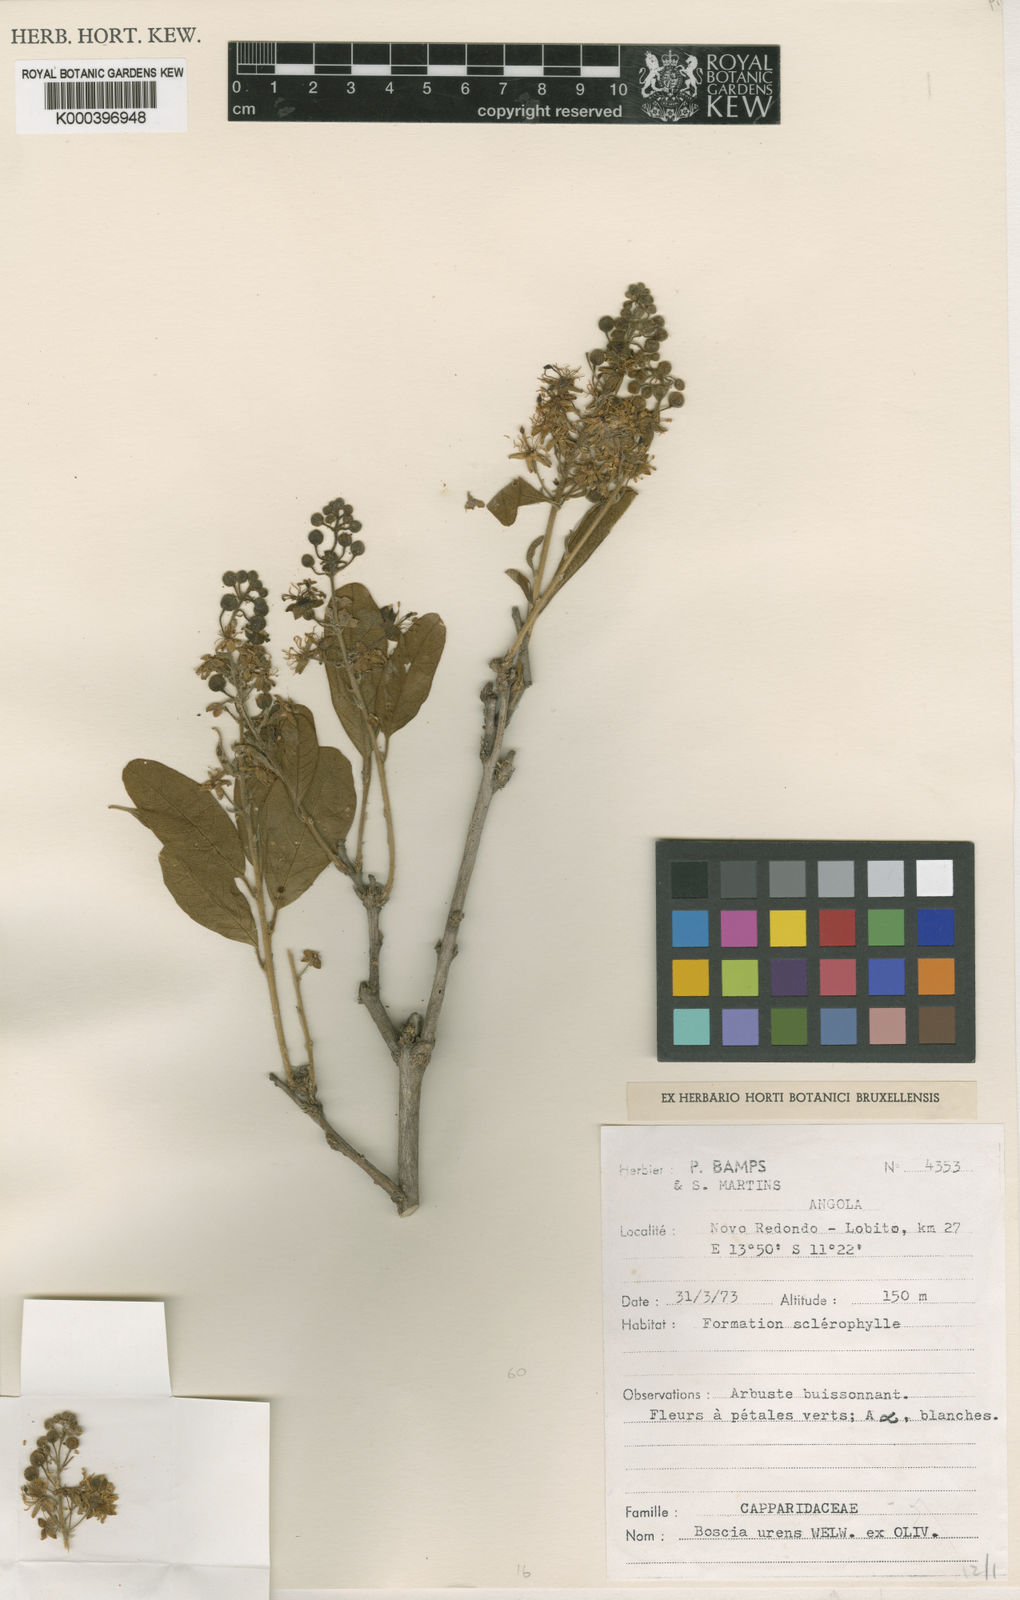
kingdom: Plantae
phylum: Tracheophyta
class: Magnoliopsida
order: Brassicales
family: Capparaceae
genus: Boscia
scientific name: Boscia
